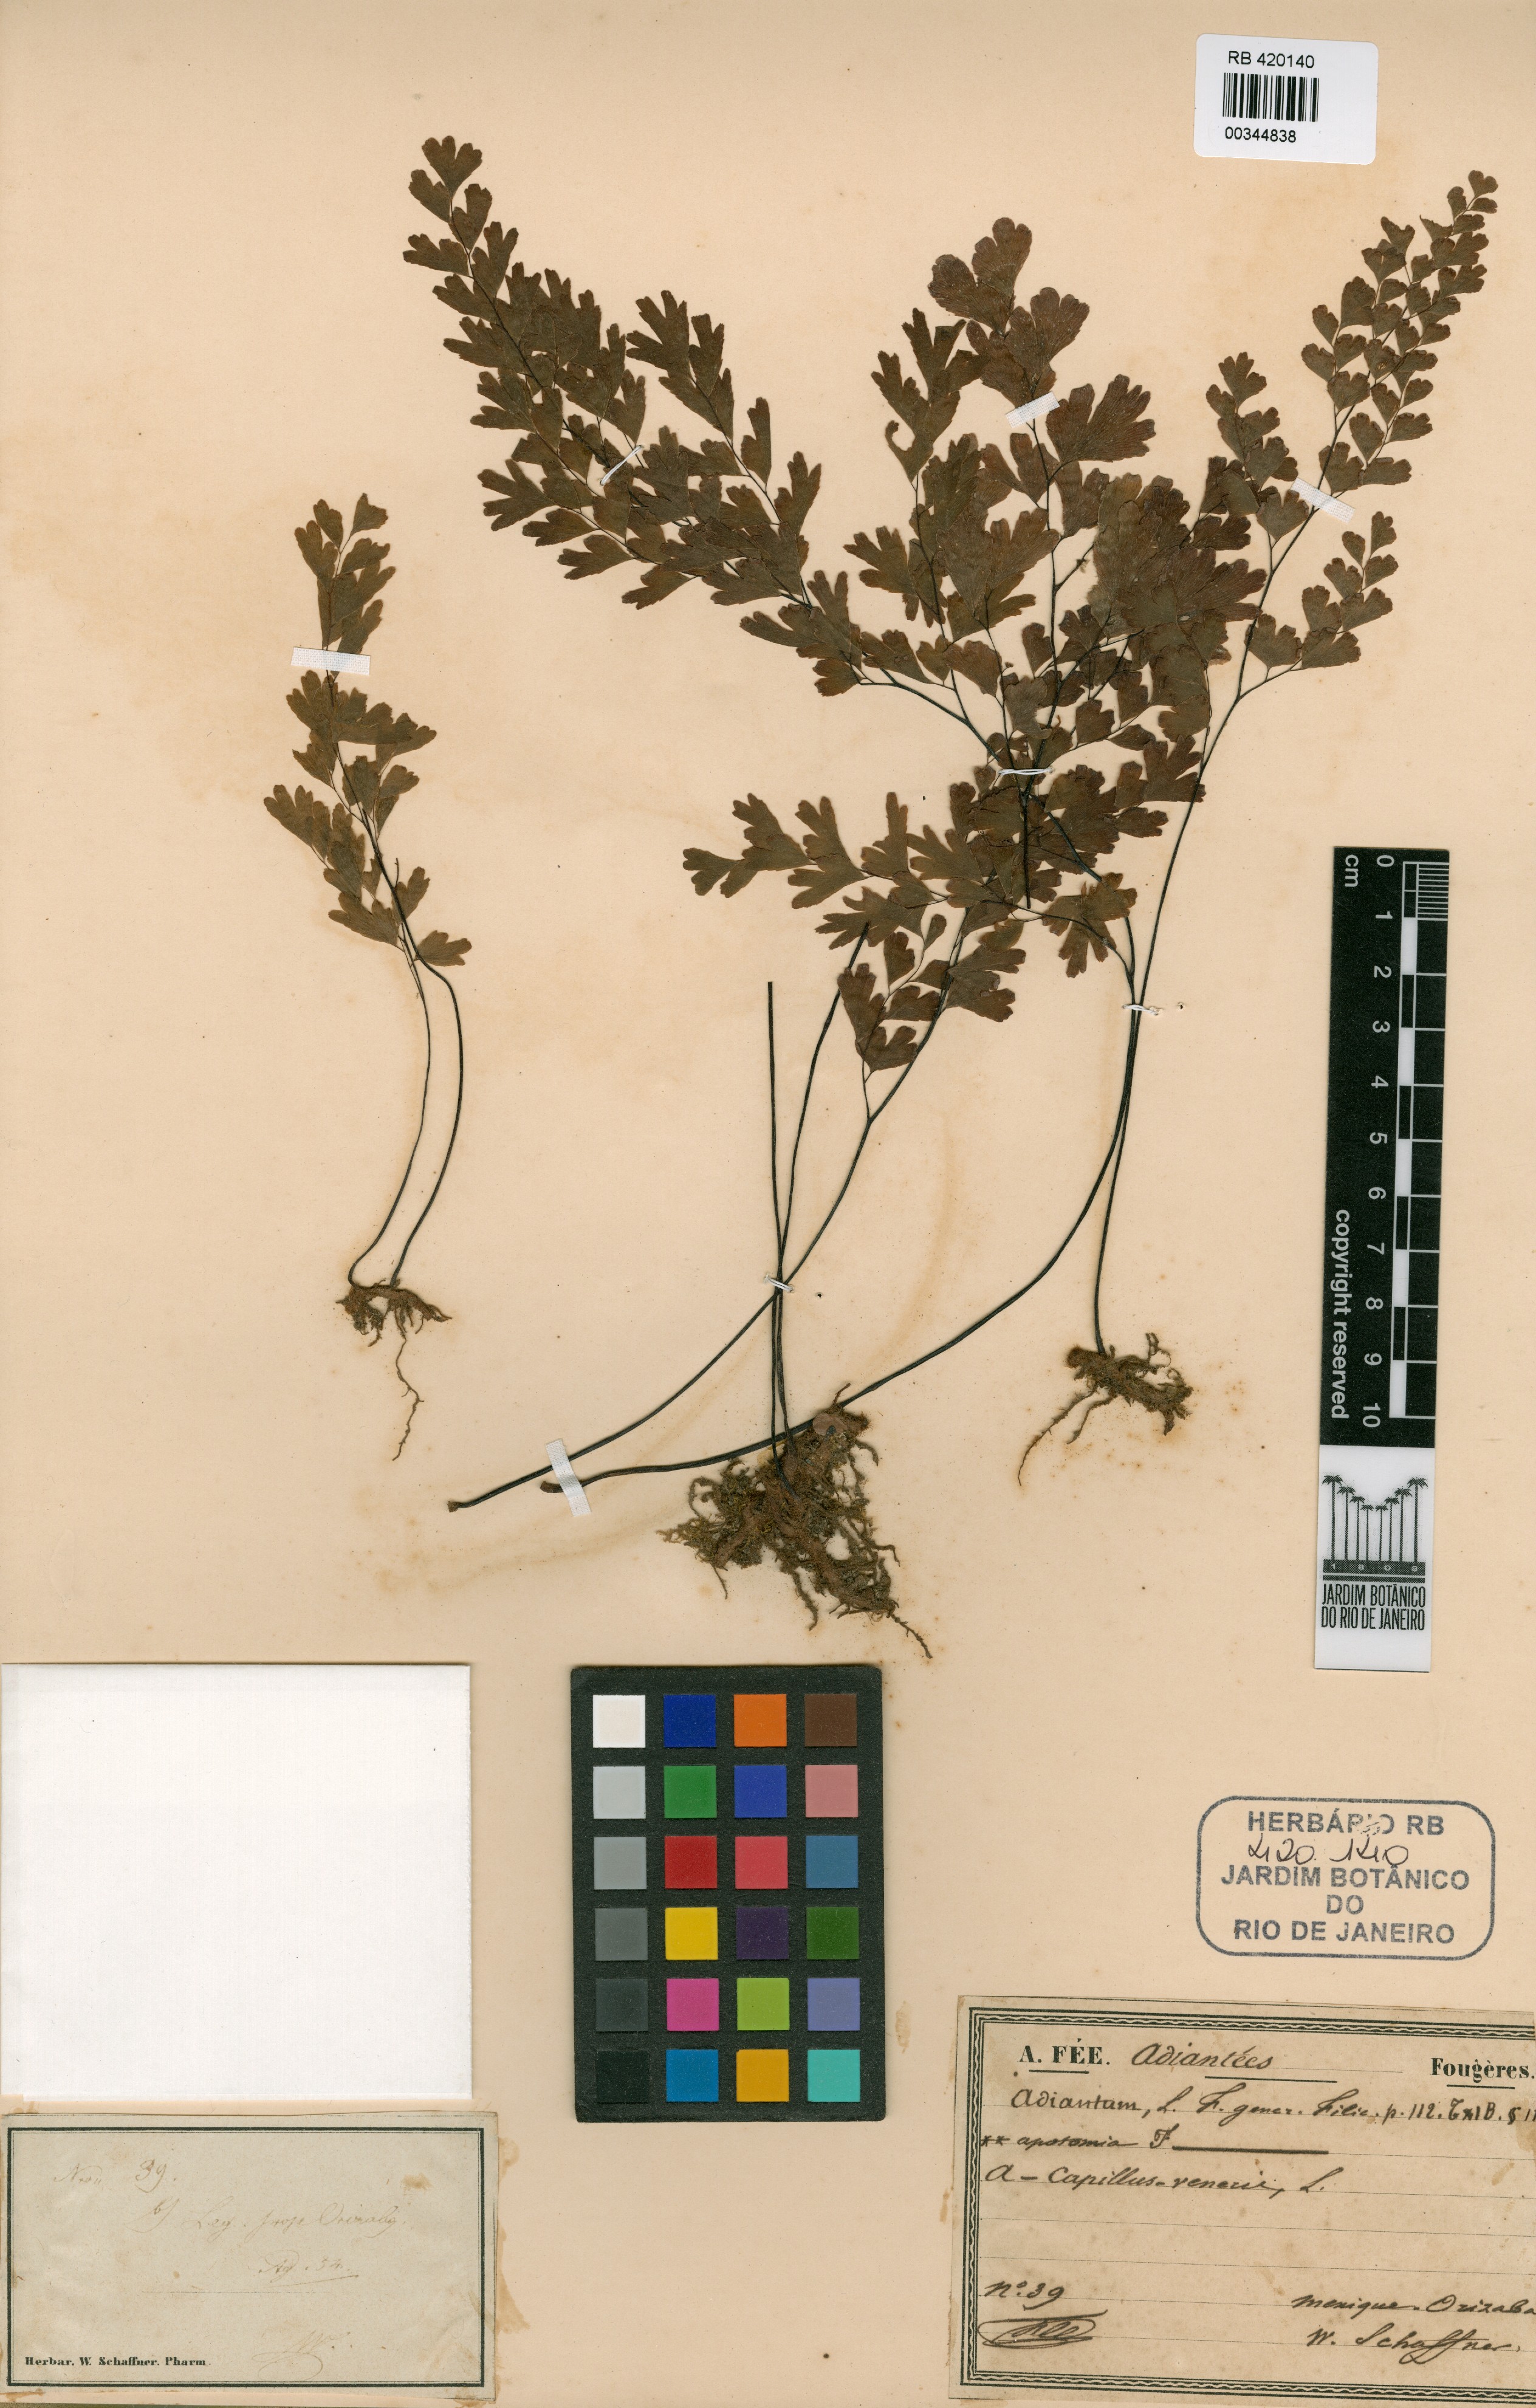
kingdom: Plantae
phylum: Tracheophyta
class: Polypodiopsida
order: Polypodiales
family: Pteridaceae
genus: Adiantum
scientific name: Adiantum capillus-veneris
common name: Maidenhair fern
